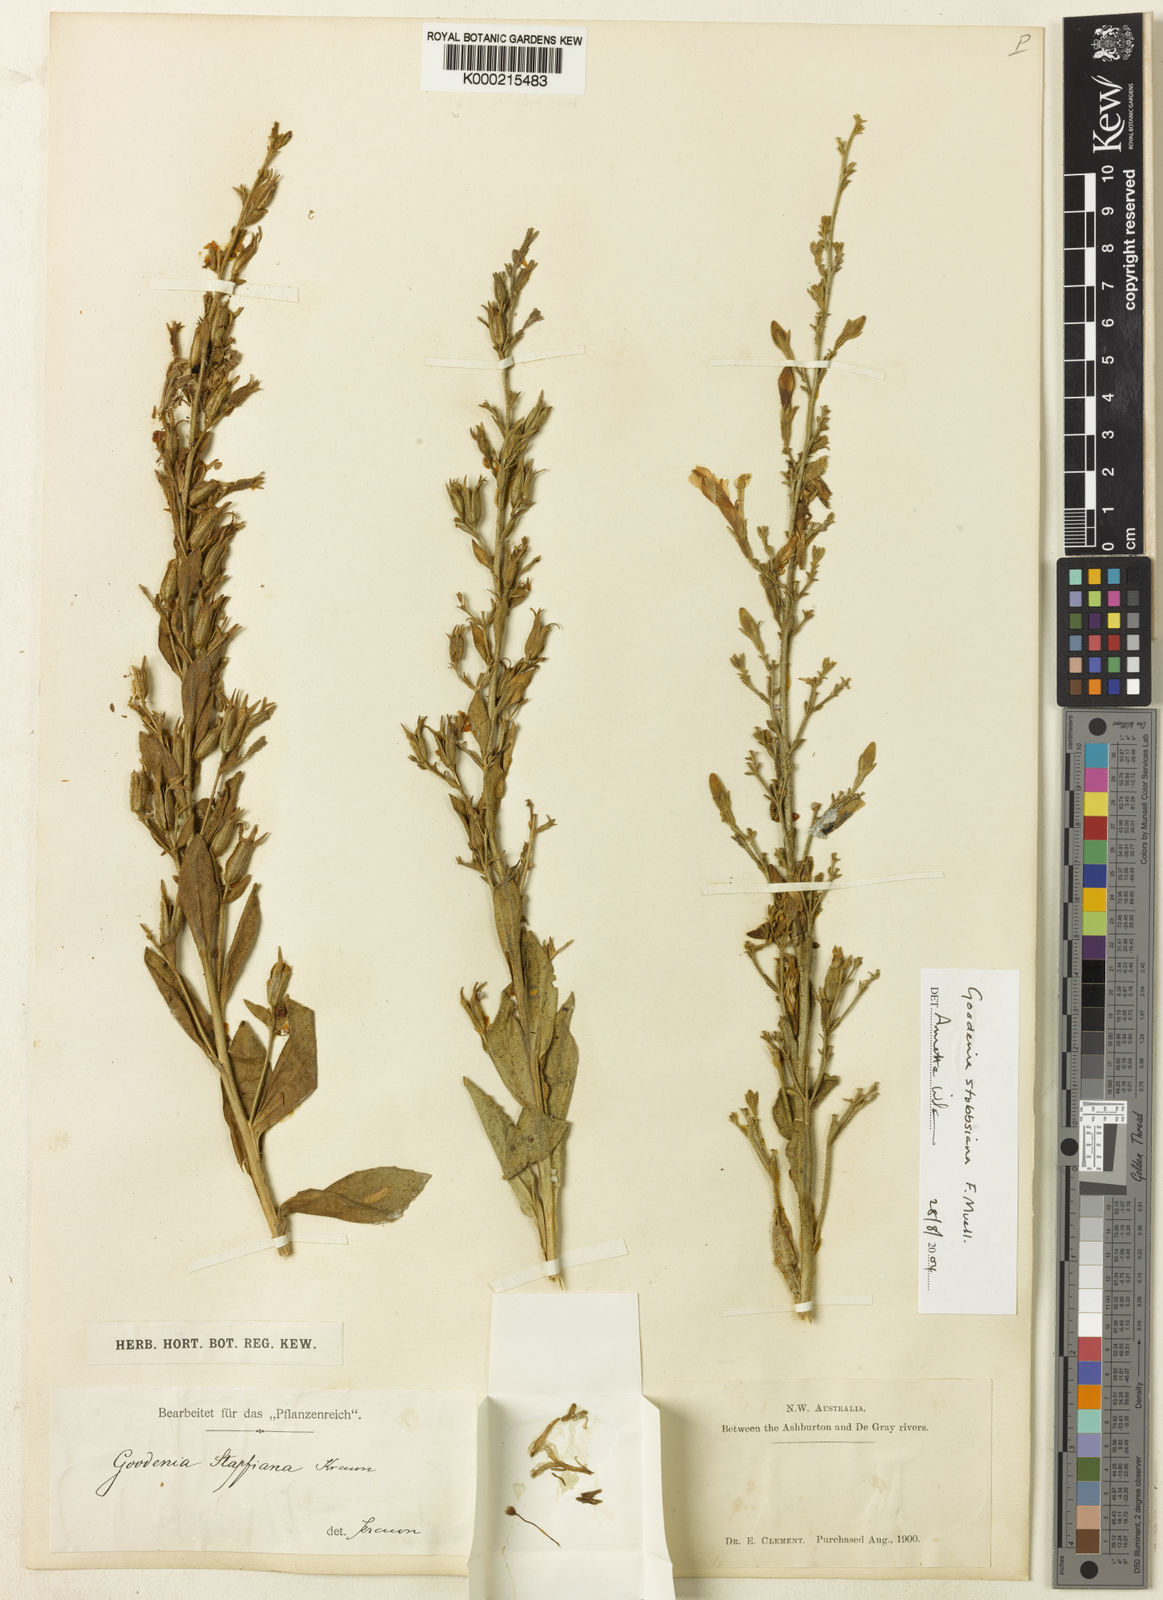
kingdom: Plantae
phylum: Tracheophyta
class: Magnoliopsida
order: Asterales
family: Goodeniaceae
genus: Goodenia
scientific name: Goodenia stobbsiana
